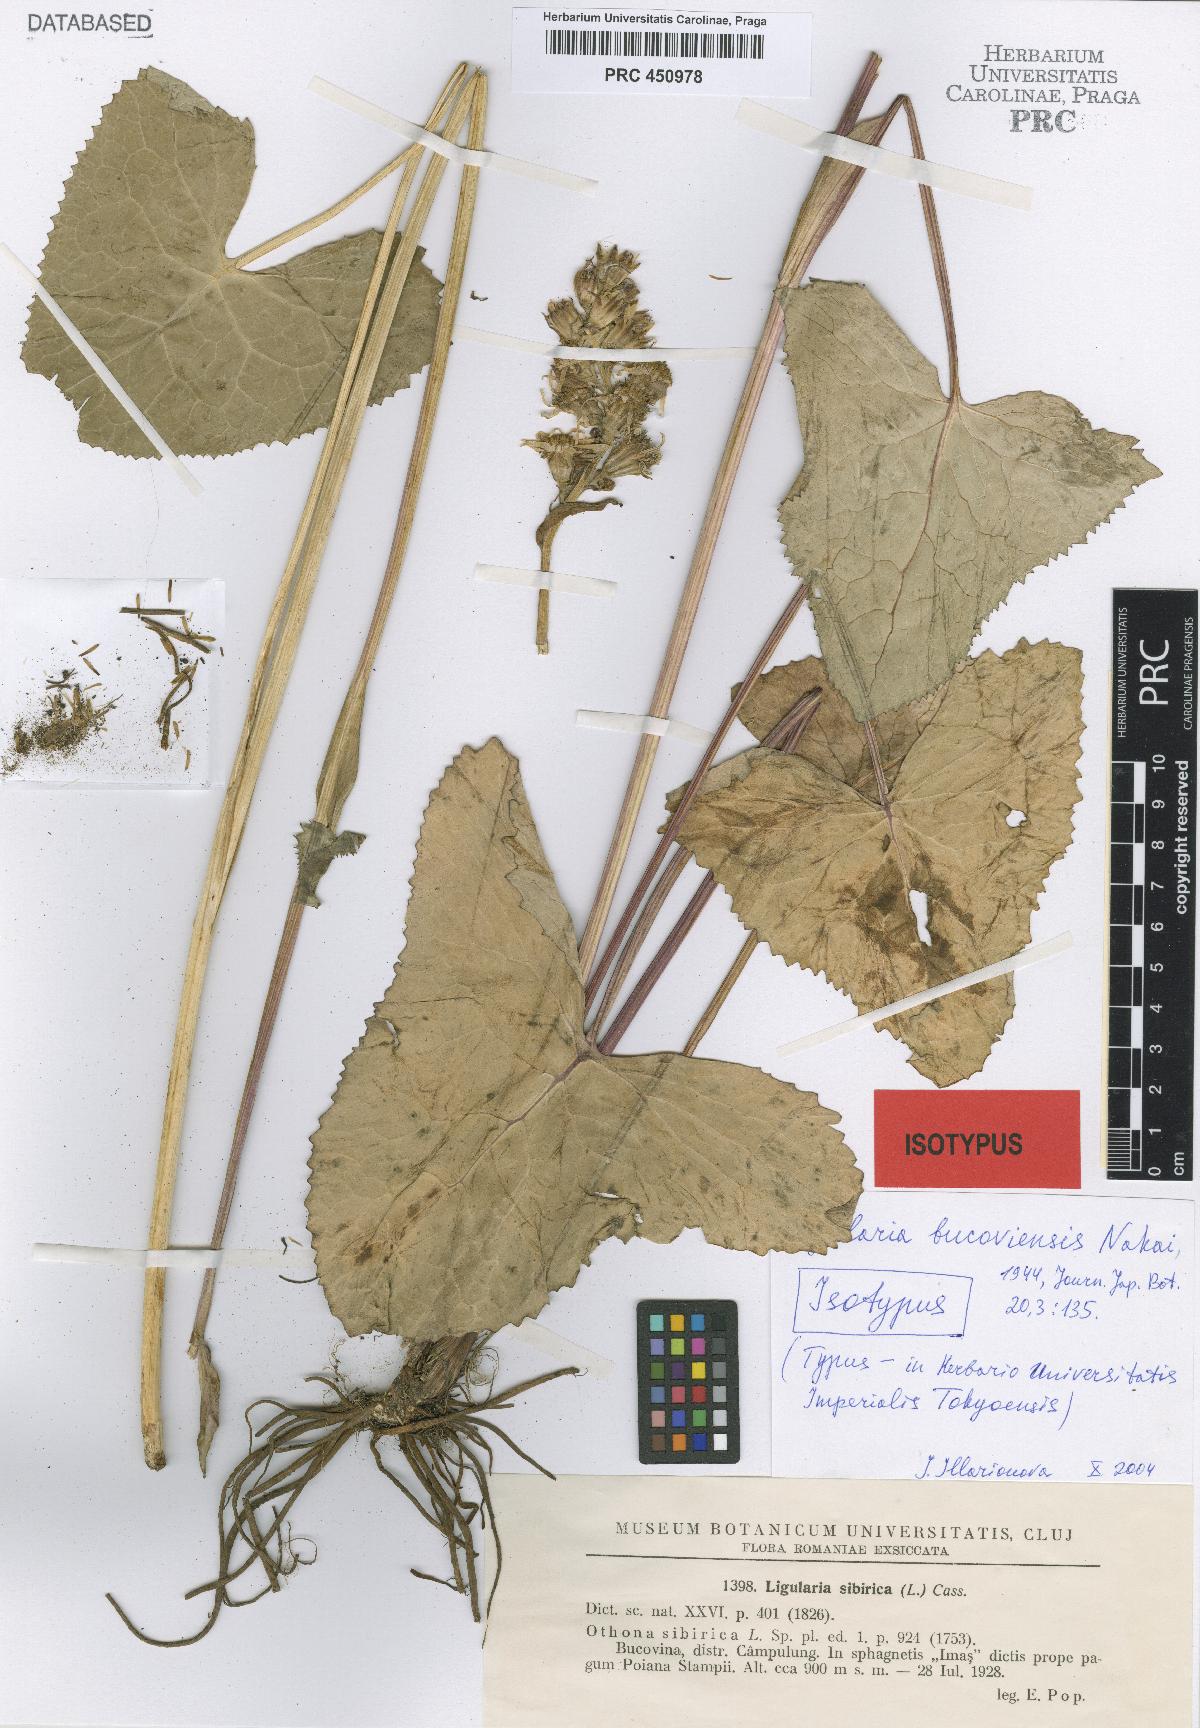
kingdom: Plantae
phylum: Tracheophyta
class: Magnoliopsida
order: Asterales
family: Asteraceae
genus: Ligularia
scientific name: Ligularia sibirica
